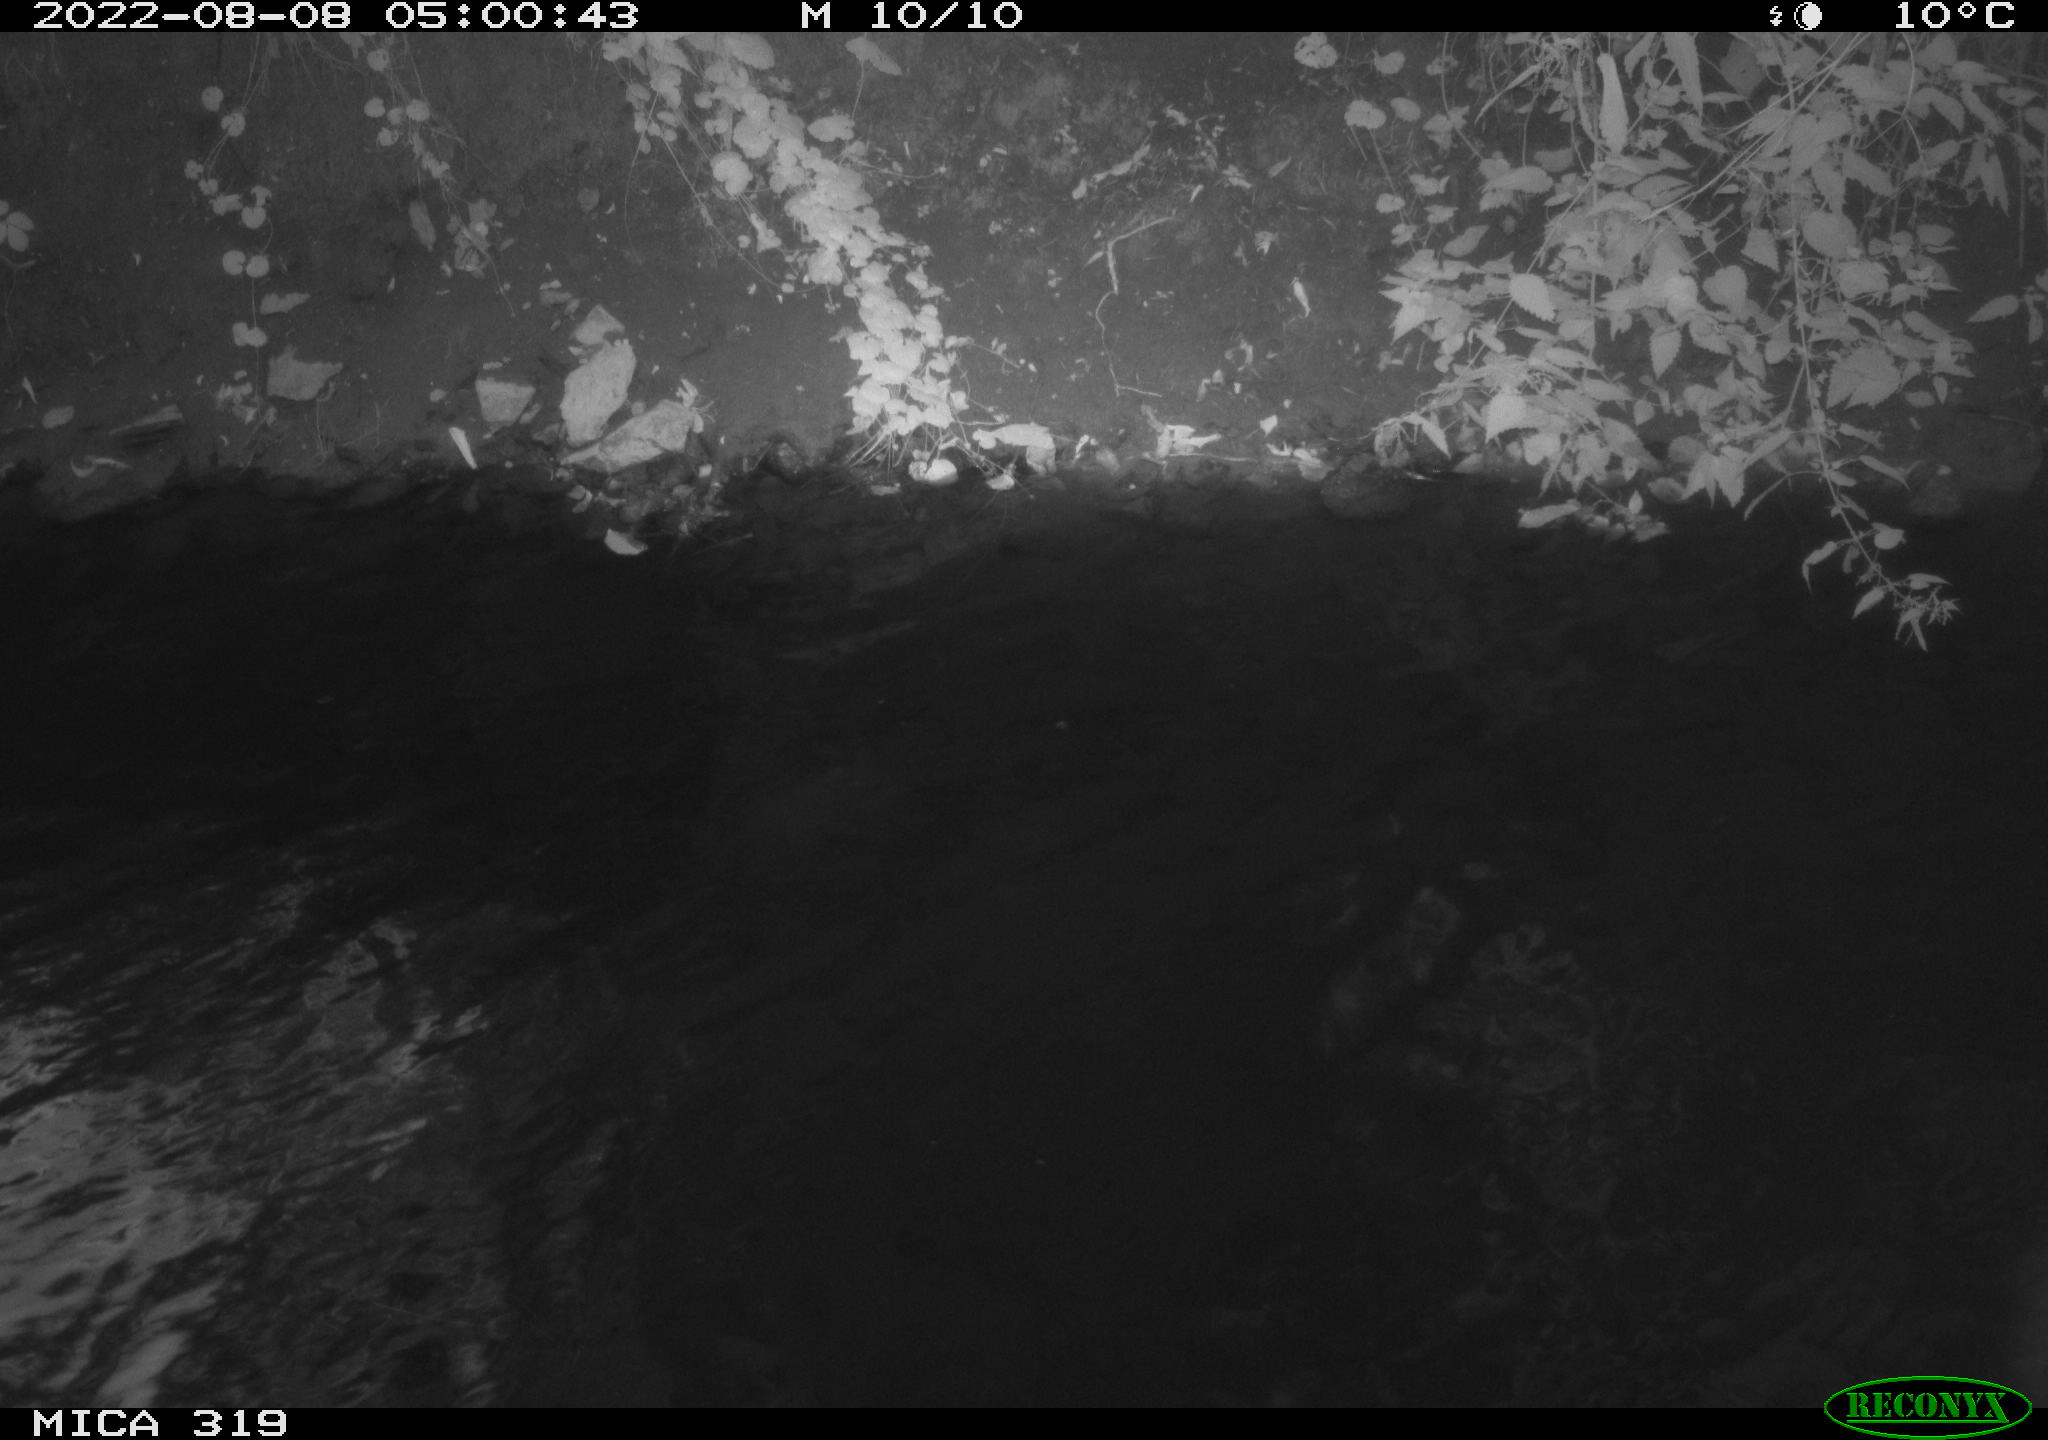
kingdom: Animalia
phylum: Chordata
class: Aves
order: Anseriformes
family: Anatidae
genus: Anas
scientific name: Anas
